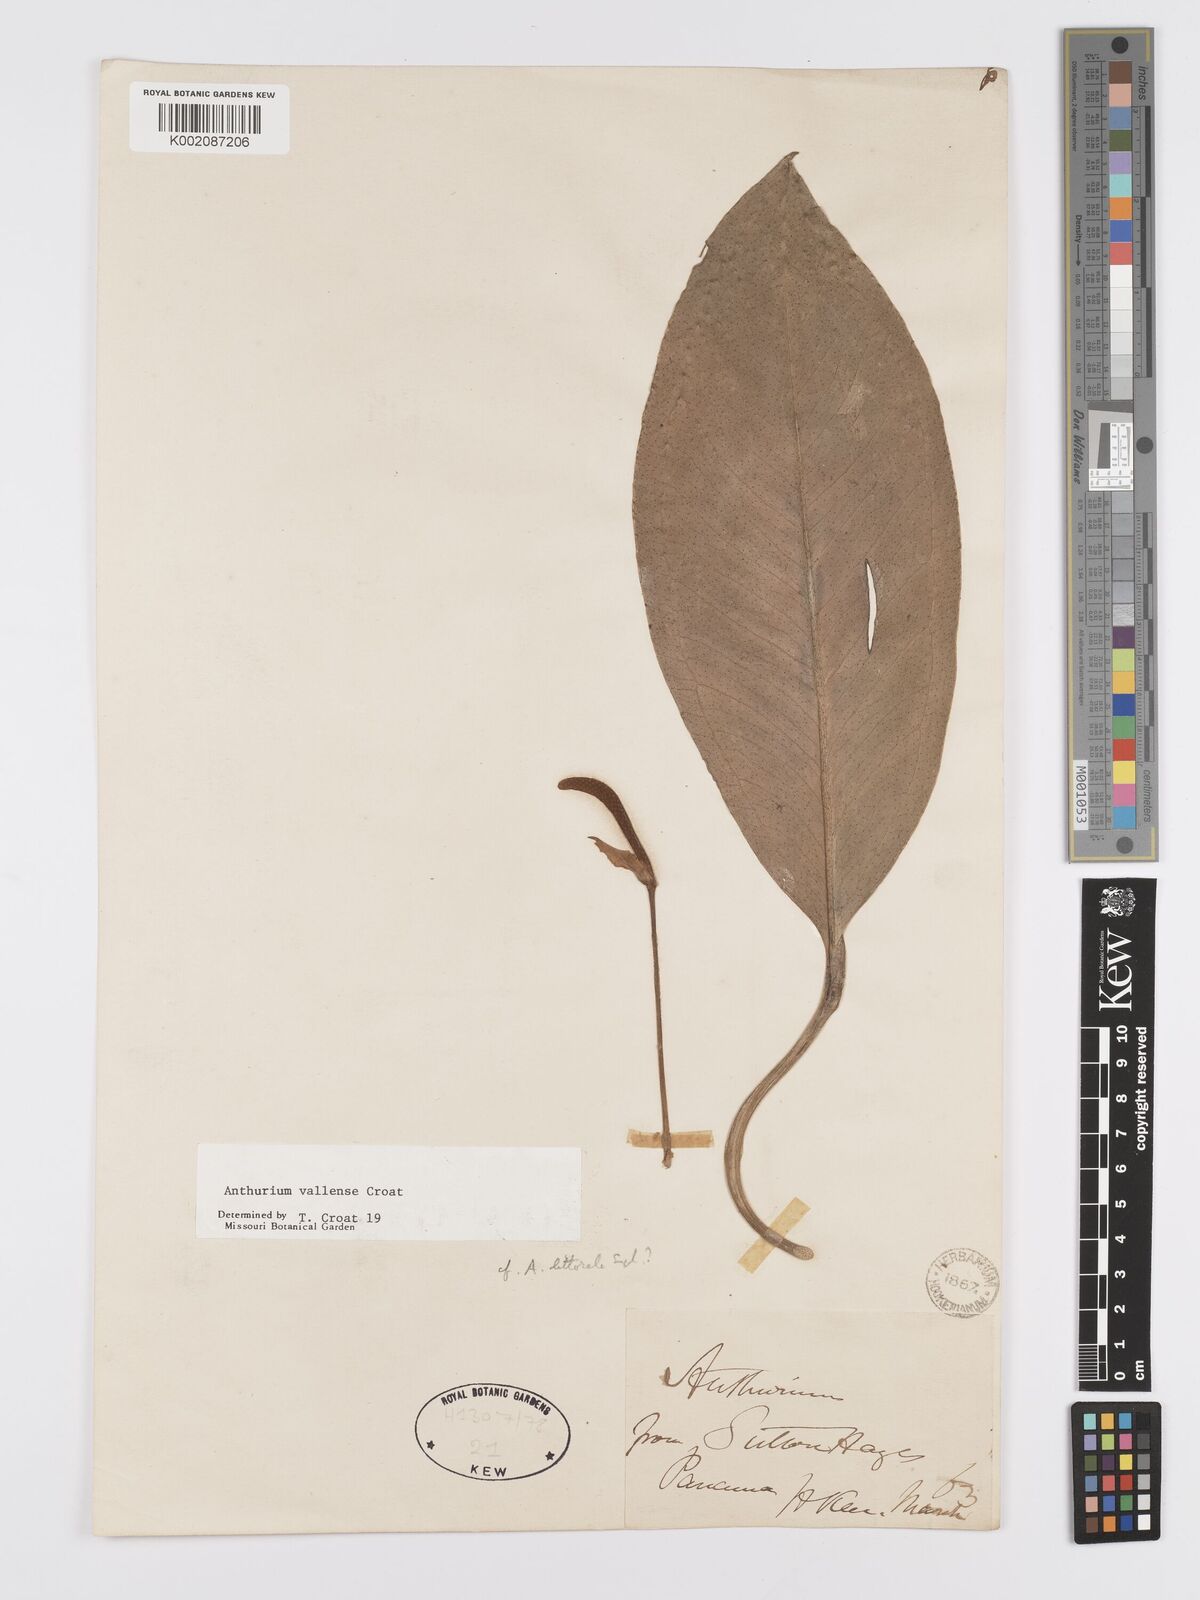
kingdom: Plantae
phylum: Tracheophyta
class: Liliopsida
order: Alismatales
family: Araceae
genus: Anthurium
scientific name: Anthurium vallense
